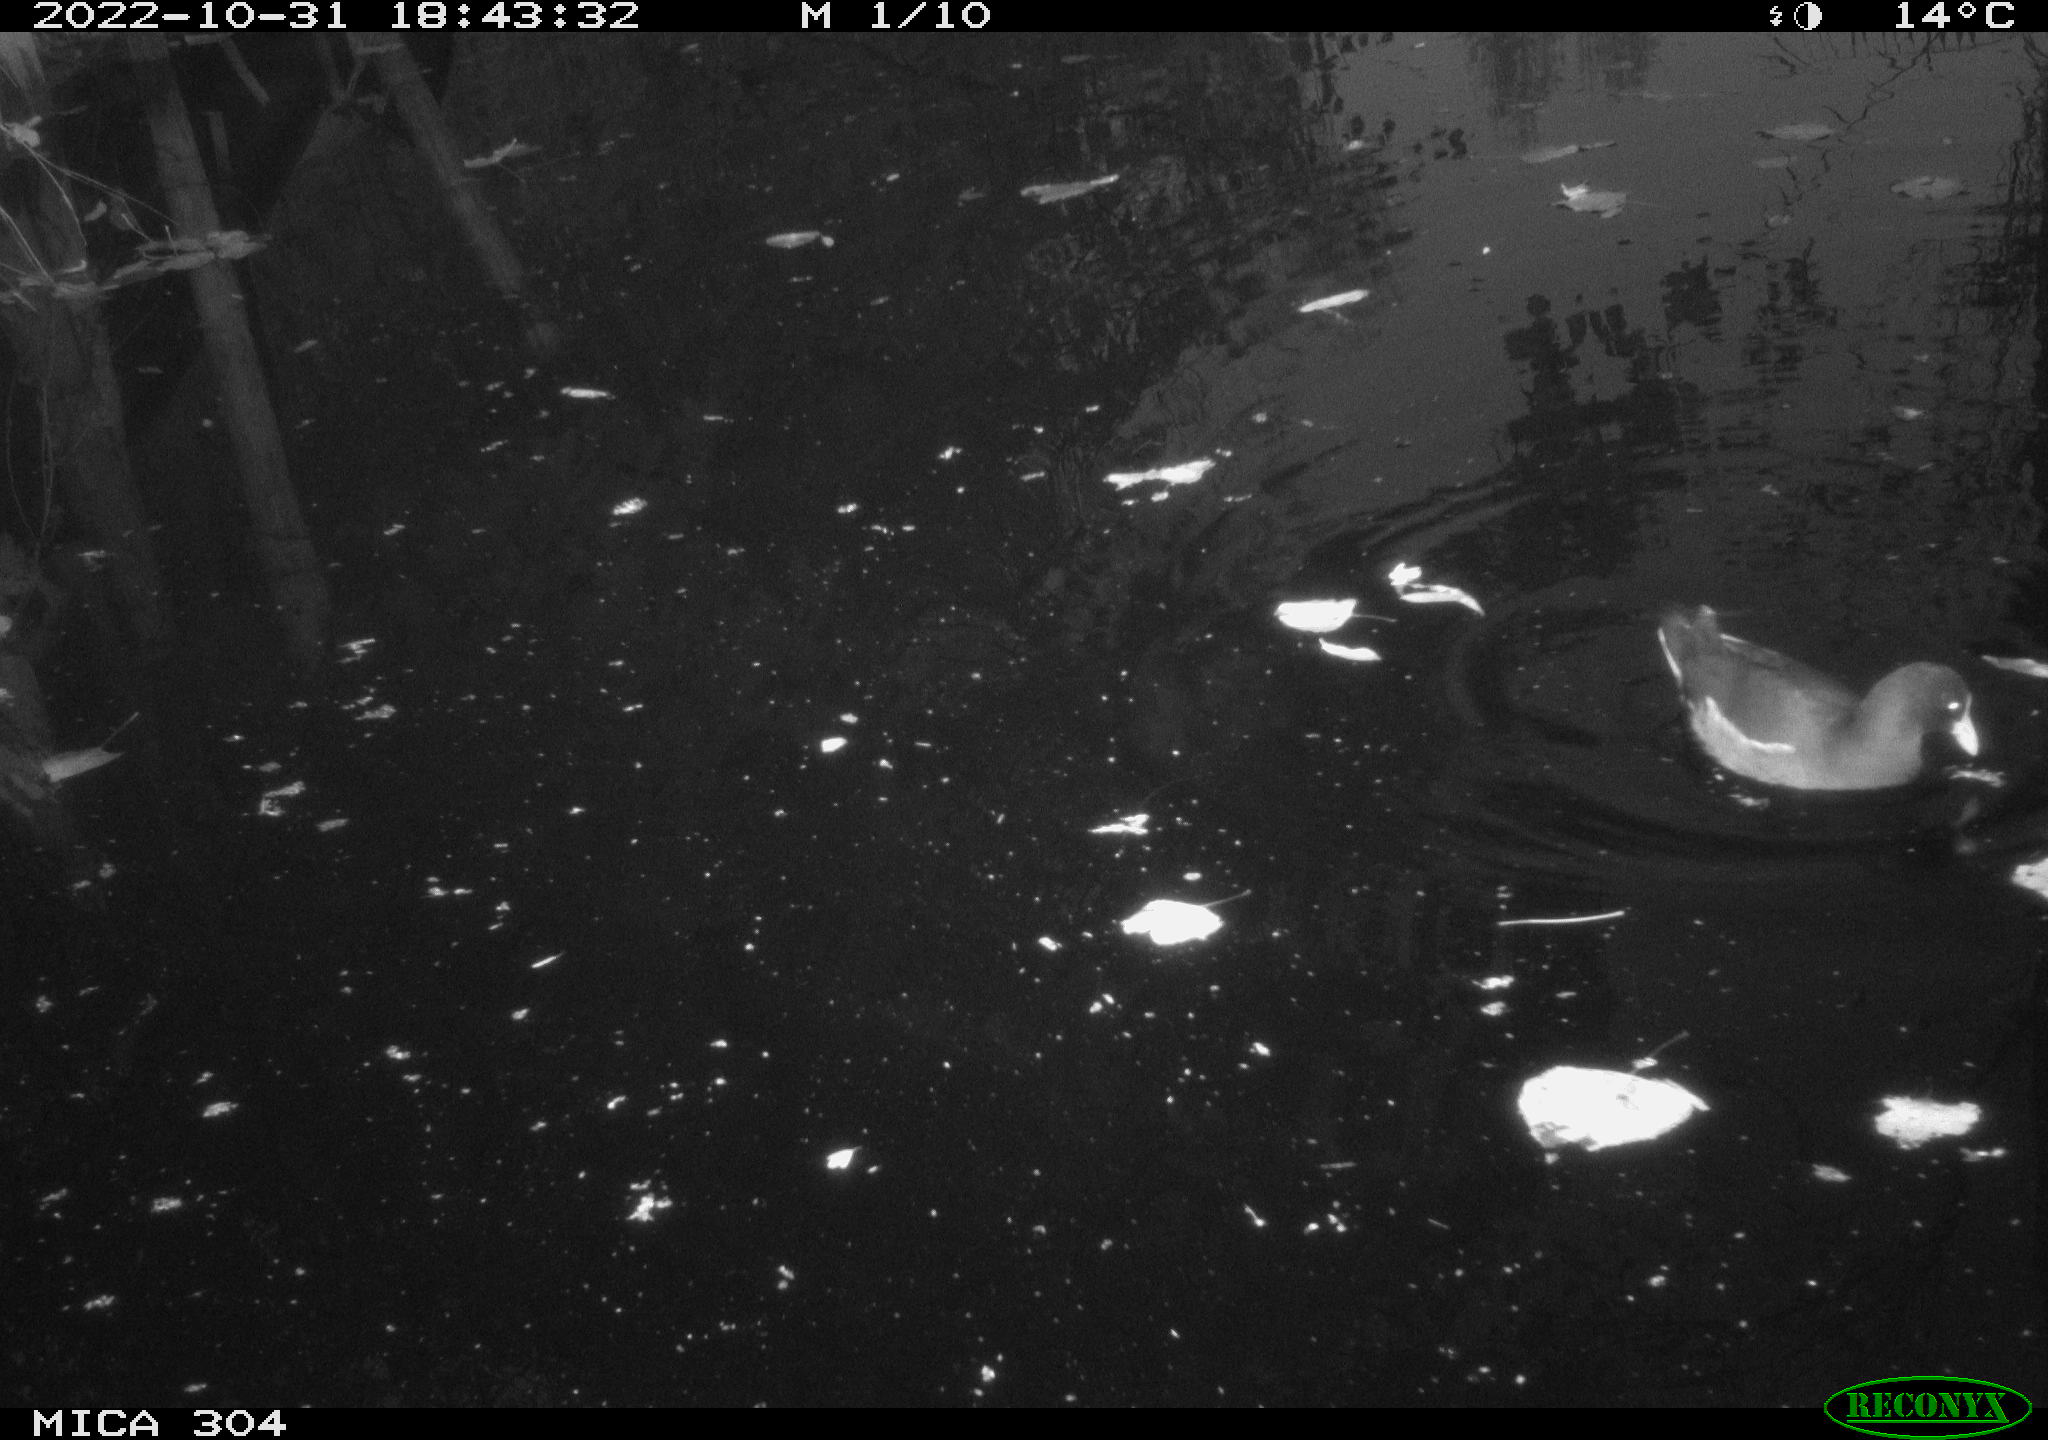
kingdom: Animalia
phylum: Chordata
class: Aves
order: Gruiformes
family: Rallidae
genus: Gallinula
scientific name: Gallinula chloropus
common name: Common moorhen
